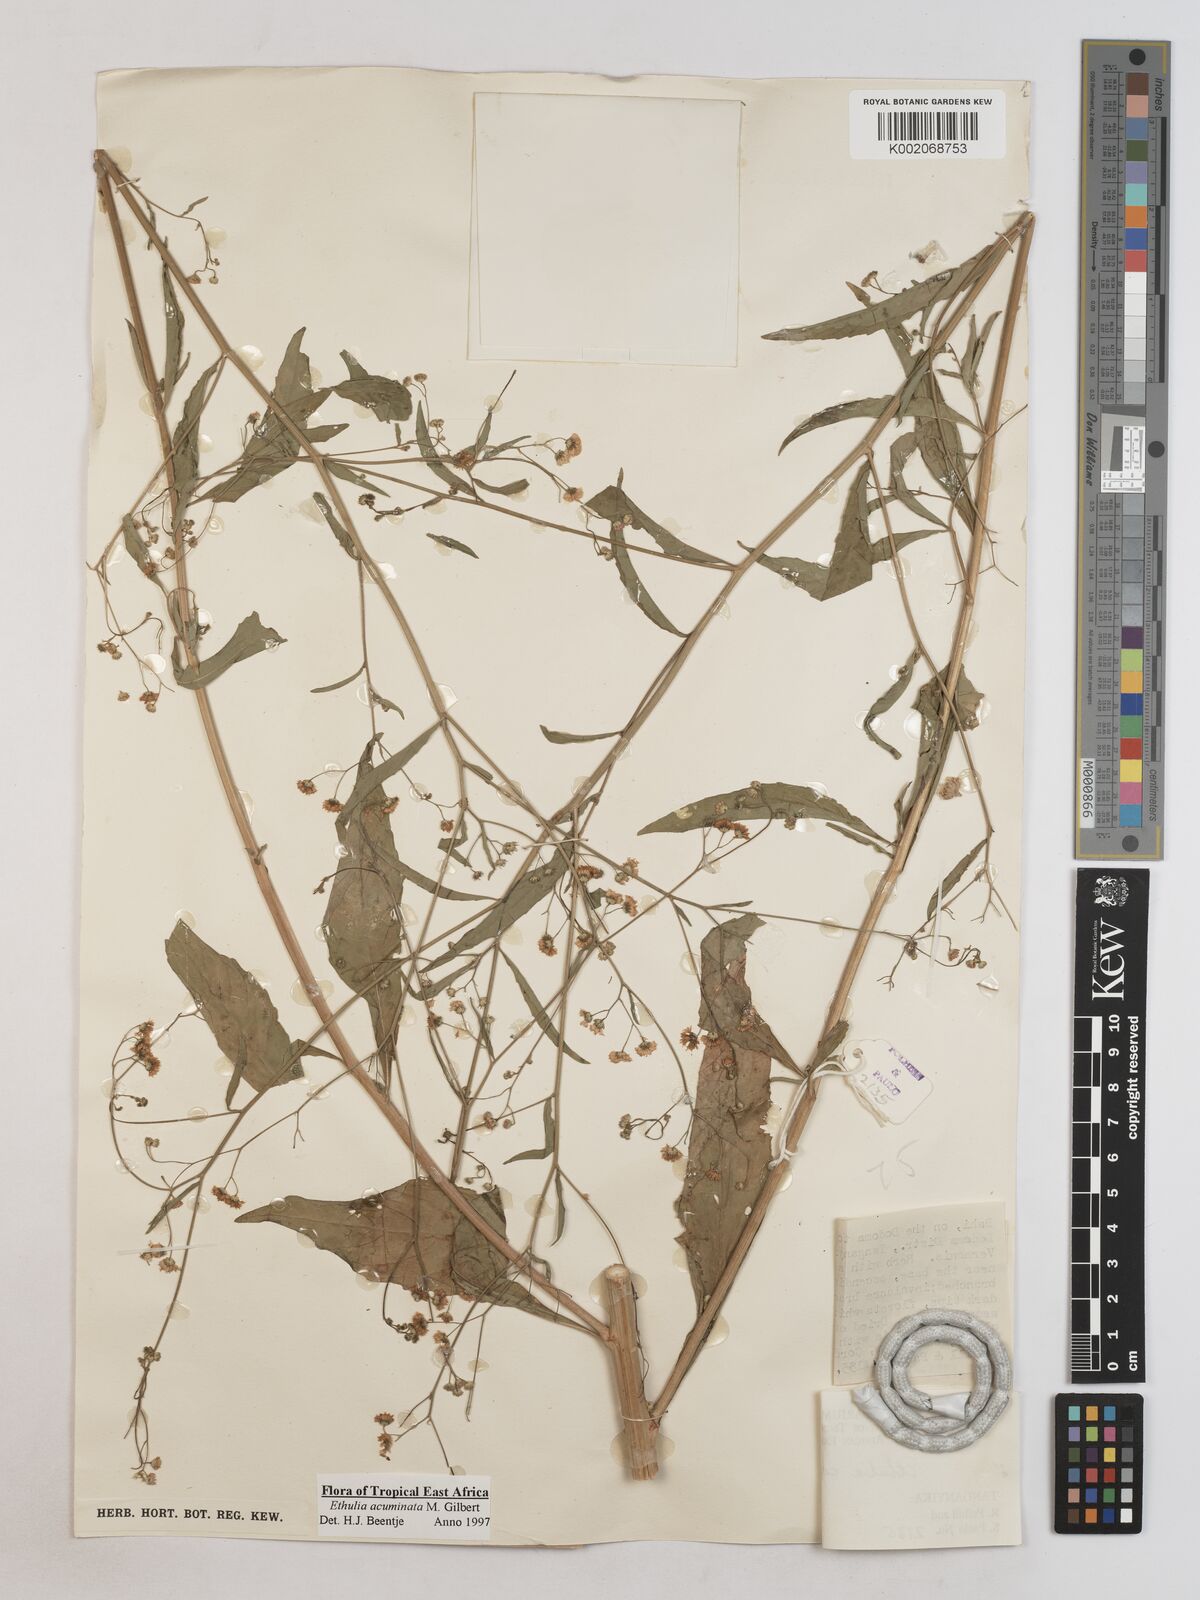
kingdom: Plantae
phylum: Tracheophyta
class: Magnoliopsida
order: Asterales
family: Asteraceae
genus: Ethulia
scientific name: Ethulia acuminata
